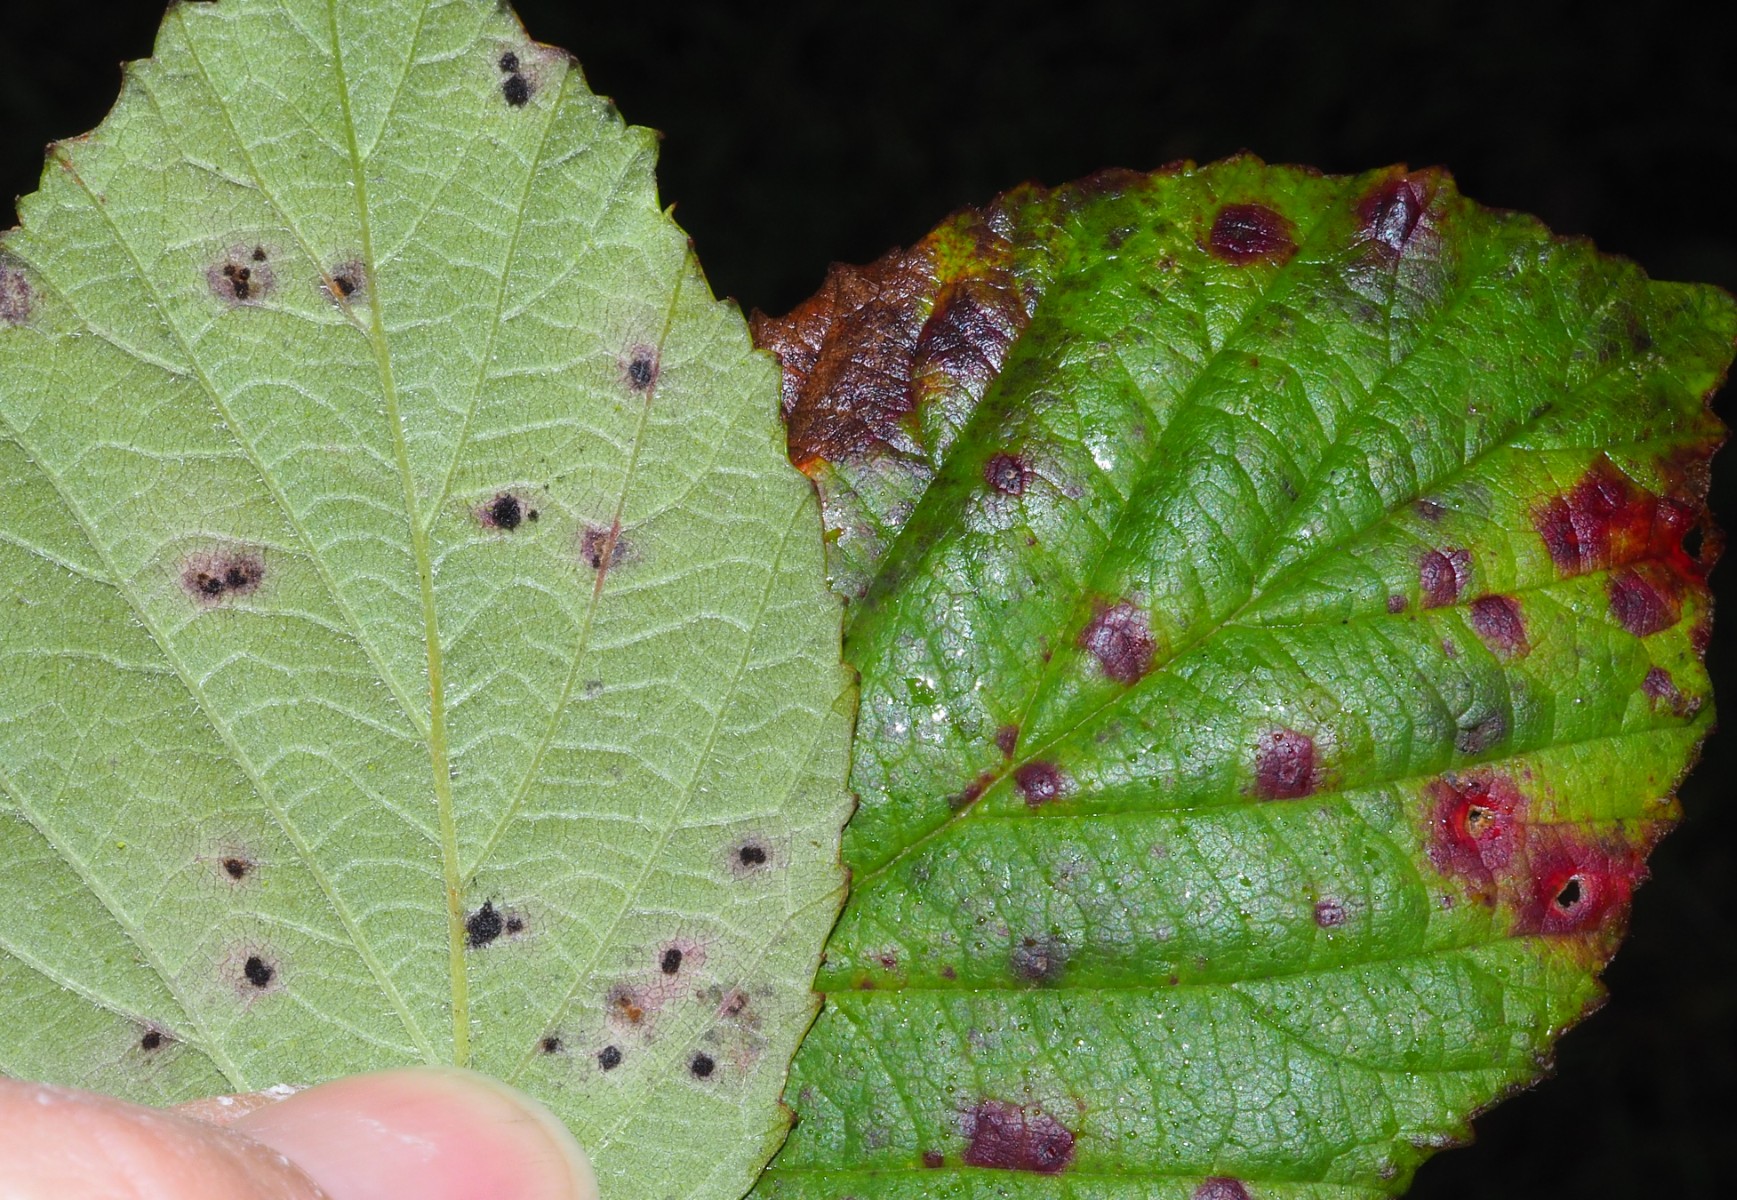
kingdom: Fungi
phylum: Basidiomycota
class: Pucciniomycetes
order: Pucciniales
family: Phragmidiaceae
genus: Phragmidium
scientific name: Phragmidium violaceum
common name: violet flercellerust
